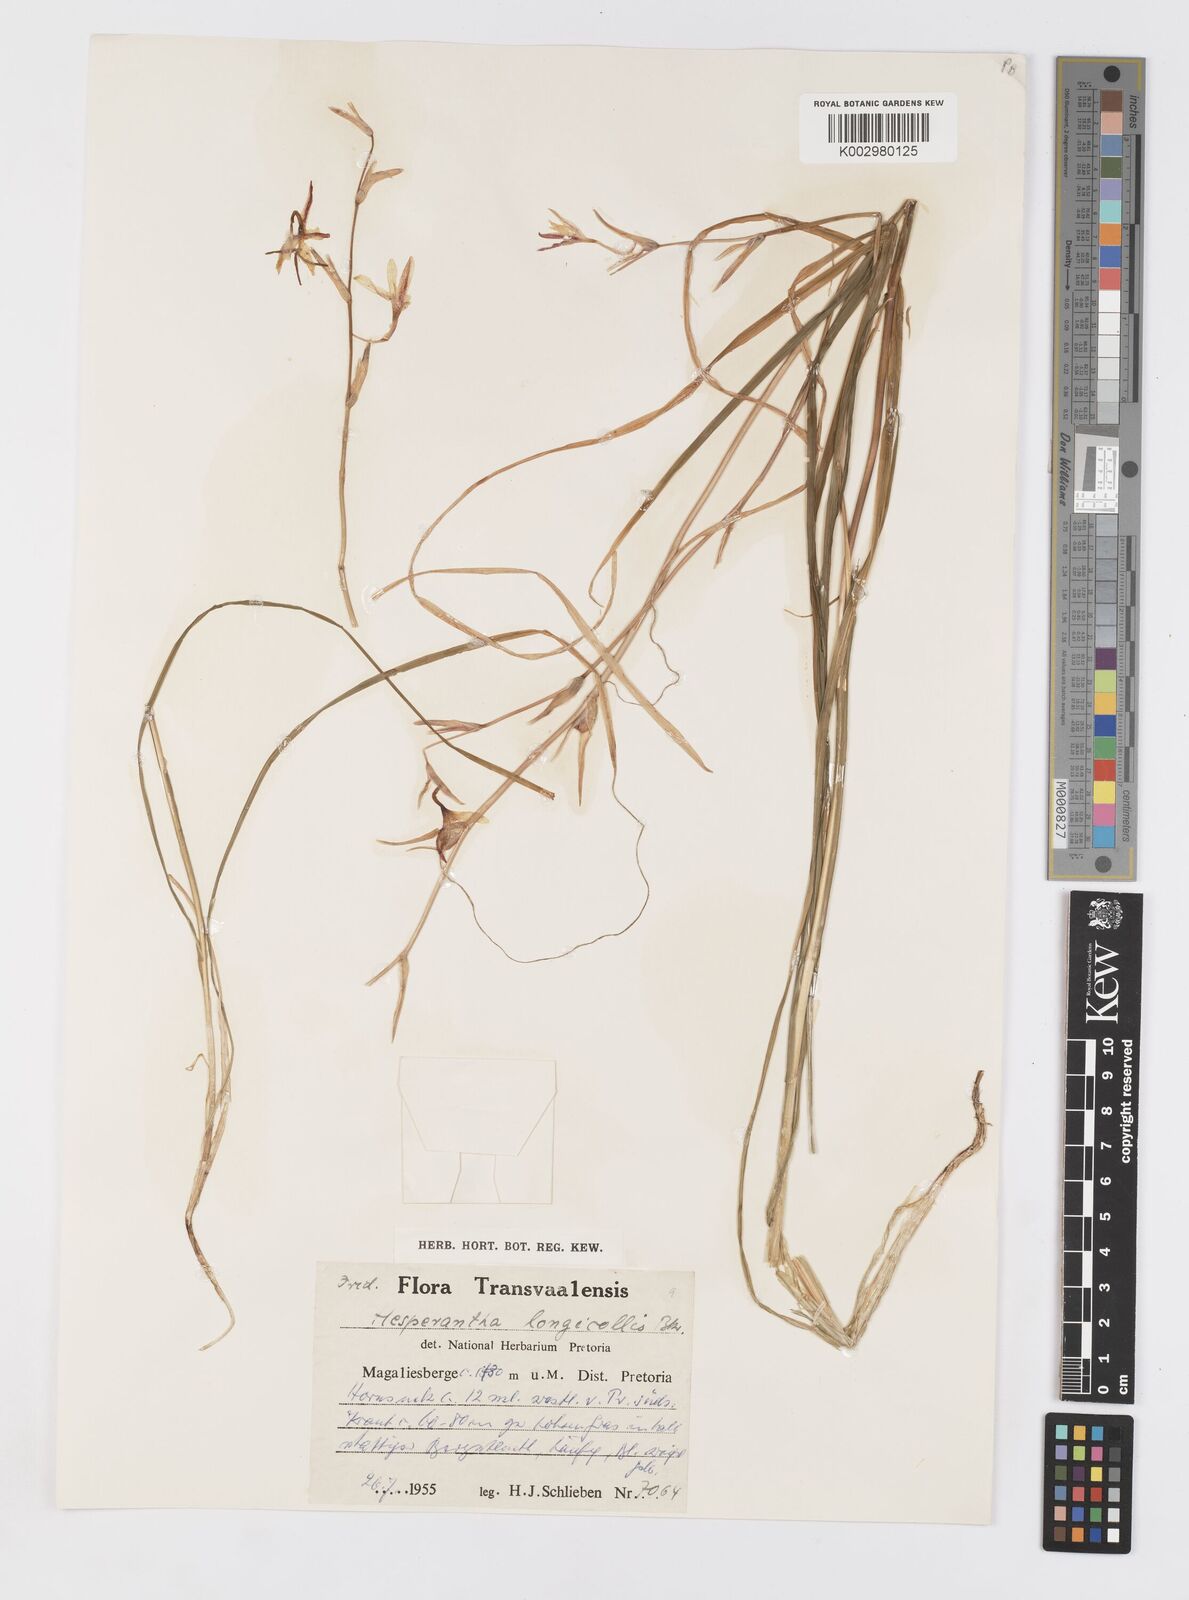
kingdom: Plantae
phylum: Tracheophyta
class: Liliopsida
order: Asparagales
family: Iridaceae
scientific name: Iridaceae
